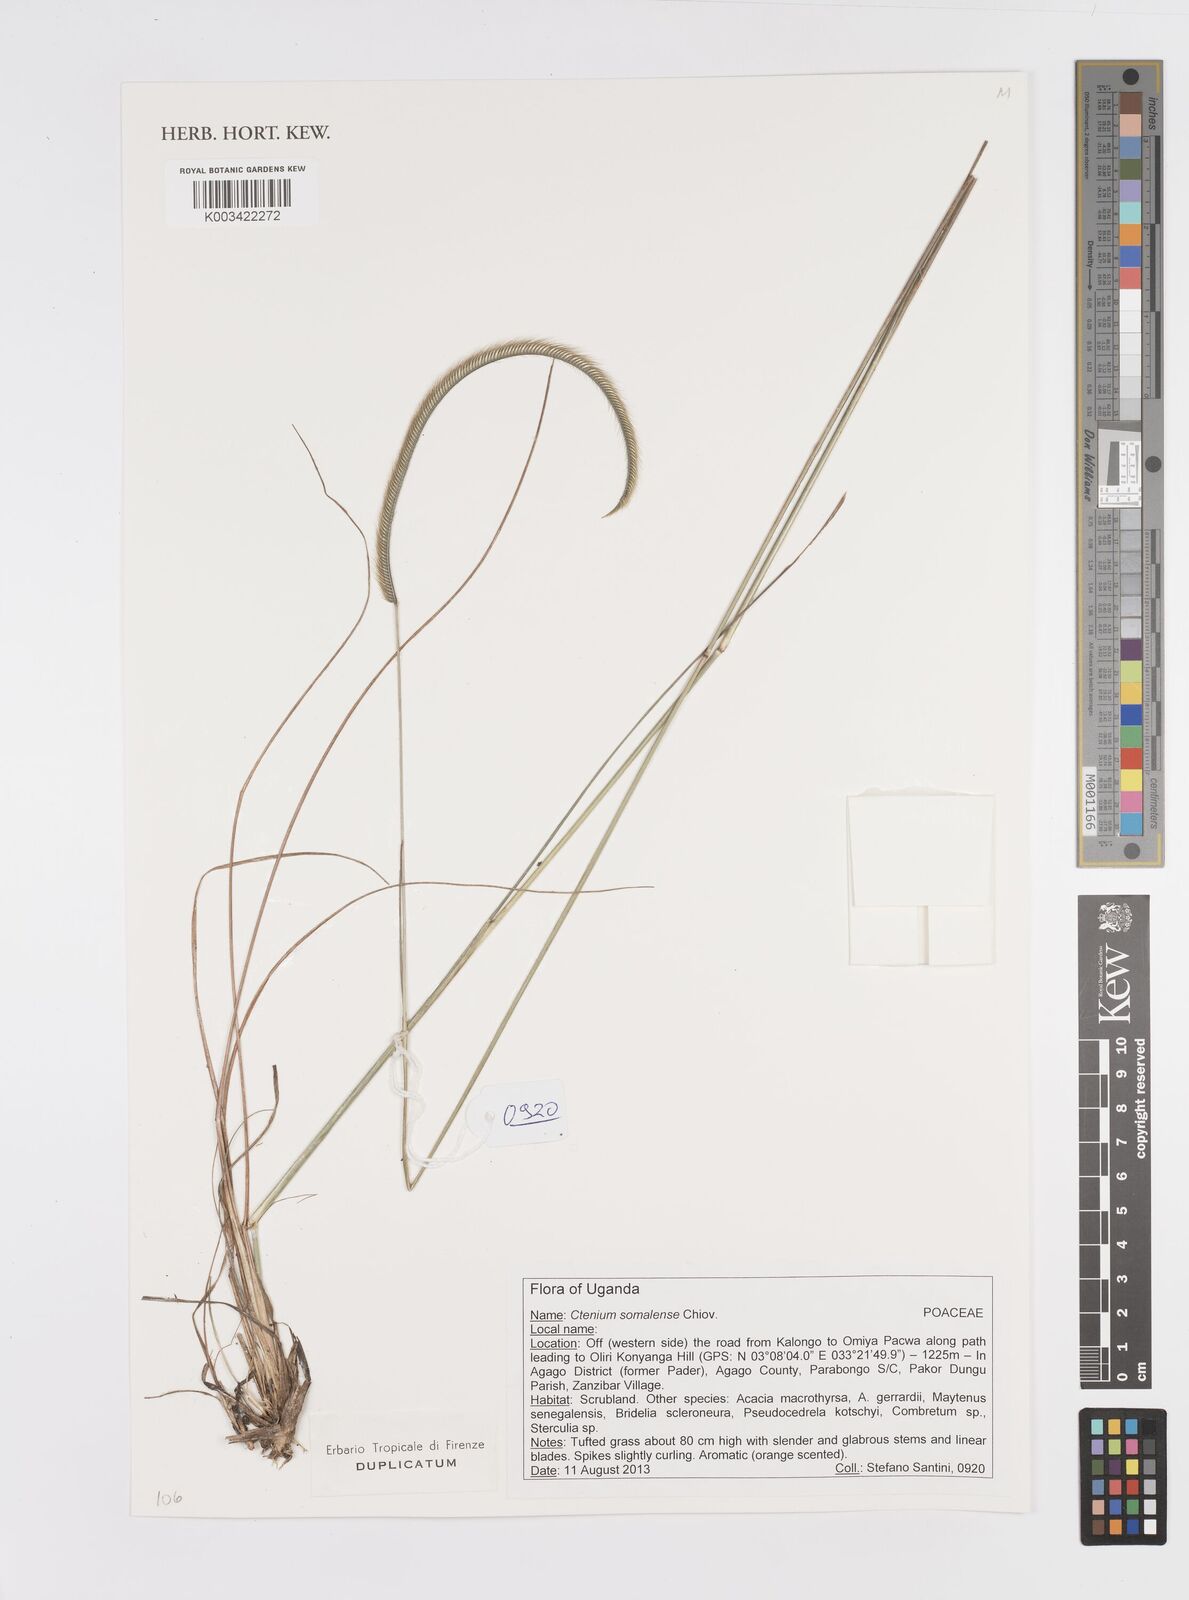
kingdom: Plantae
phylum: Tracheophyta
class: Liliopsida
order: Poales
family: Poaceae
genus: Ctenium
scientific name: Ctenium concinnum
